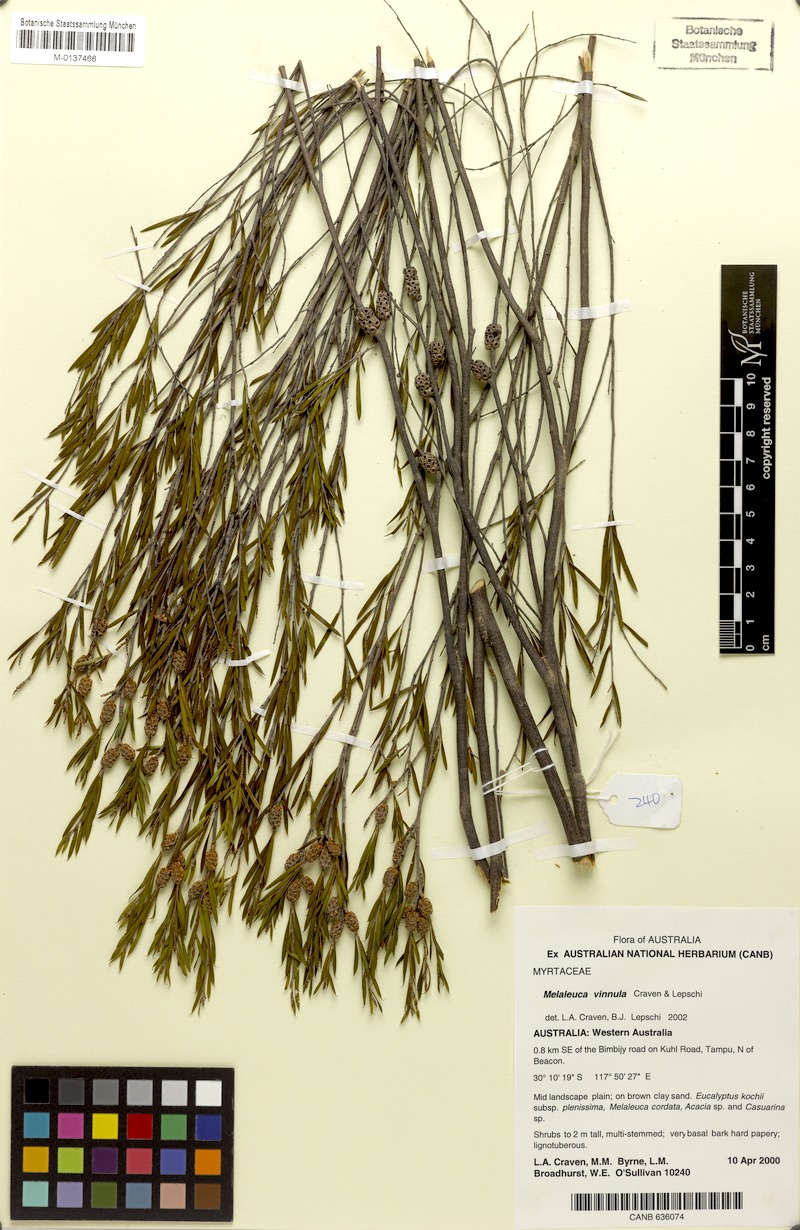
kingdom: Plantae
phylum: Tracheophyta
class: Magnoliopsida
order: Myrtales
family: Myrtaceae
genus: Melaleuca
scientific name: Melaleuca vinnula
